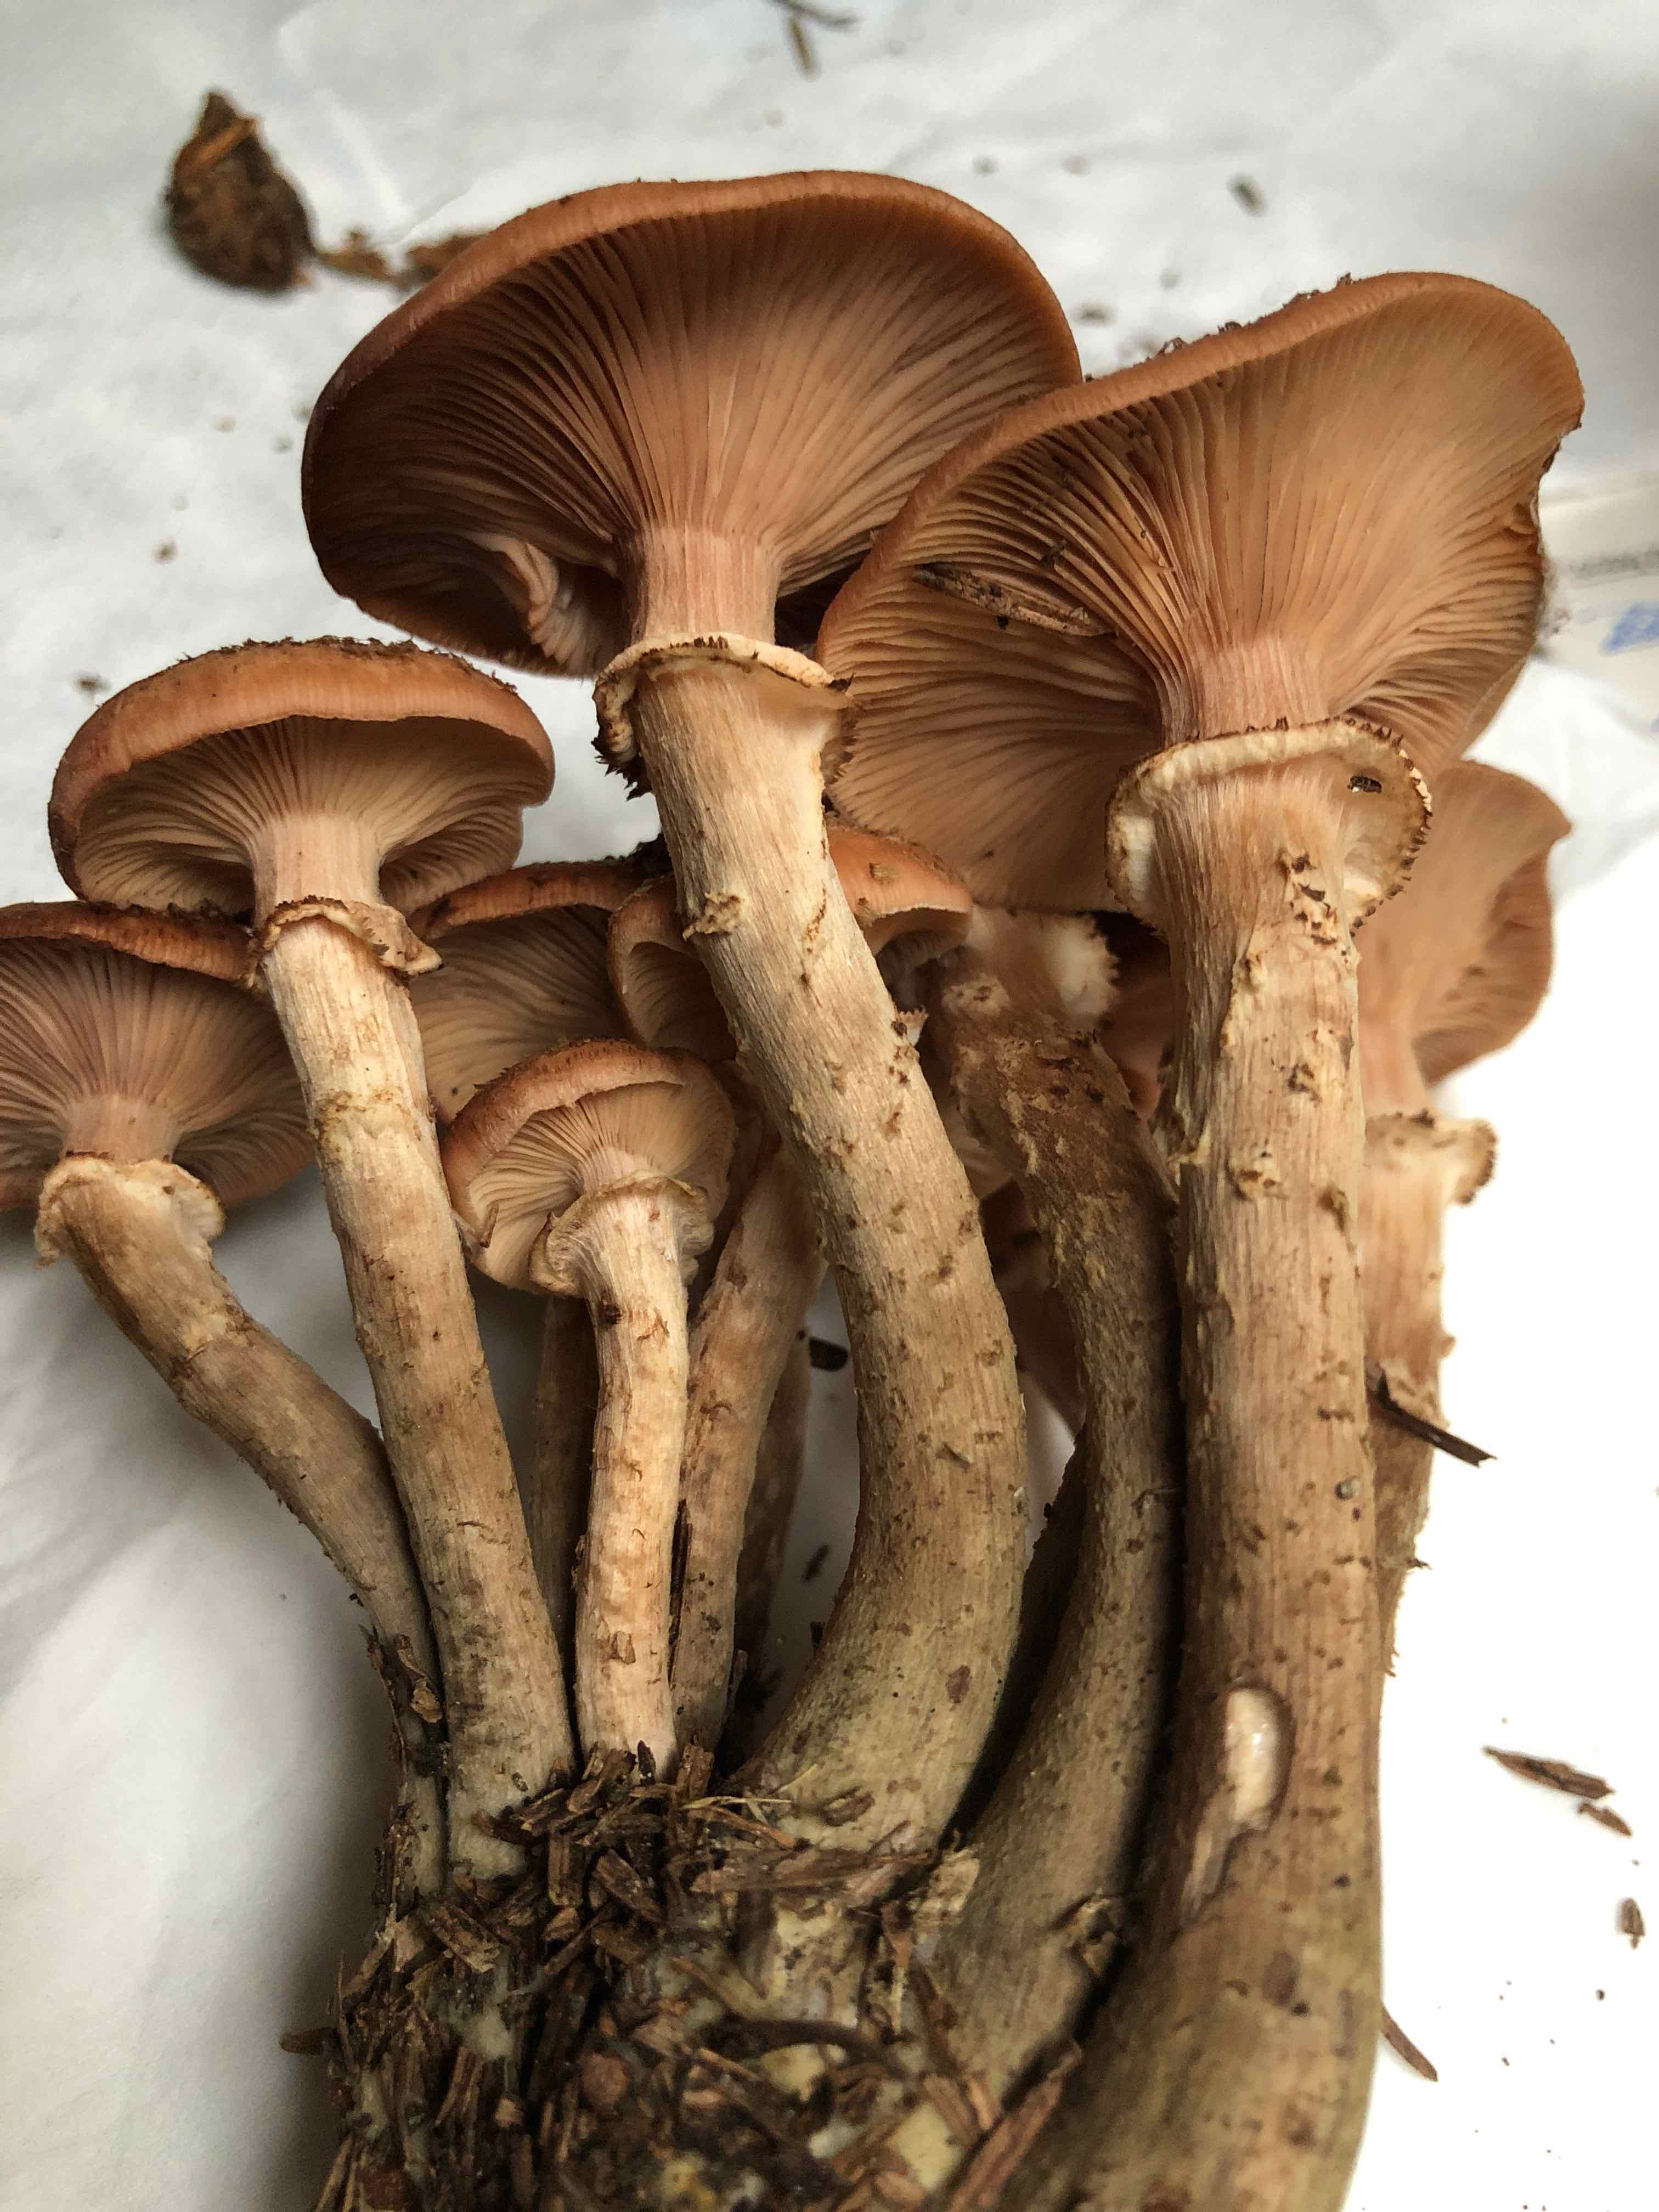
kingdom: Fungi
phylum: Basidiomycota
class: Agaricomycetes
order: Agaricales
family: Physalacriaceae
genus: Armillaria
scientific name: Armillaria ostoyae
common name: mørk honningsvamp
